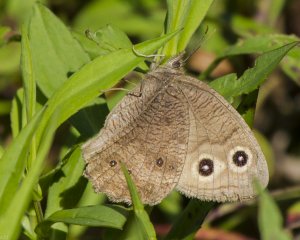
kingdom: Animalia
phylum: Arthropoda
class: Insecta
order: Lepidoptera
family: Nymphalidae
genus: Cercyonis
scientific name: Cercyonis pegala
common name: Common Wood-Nymph
